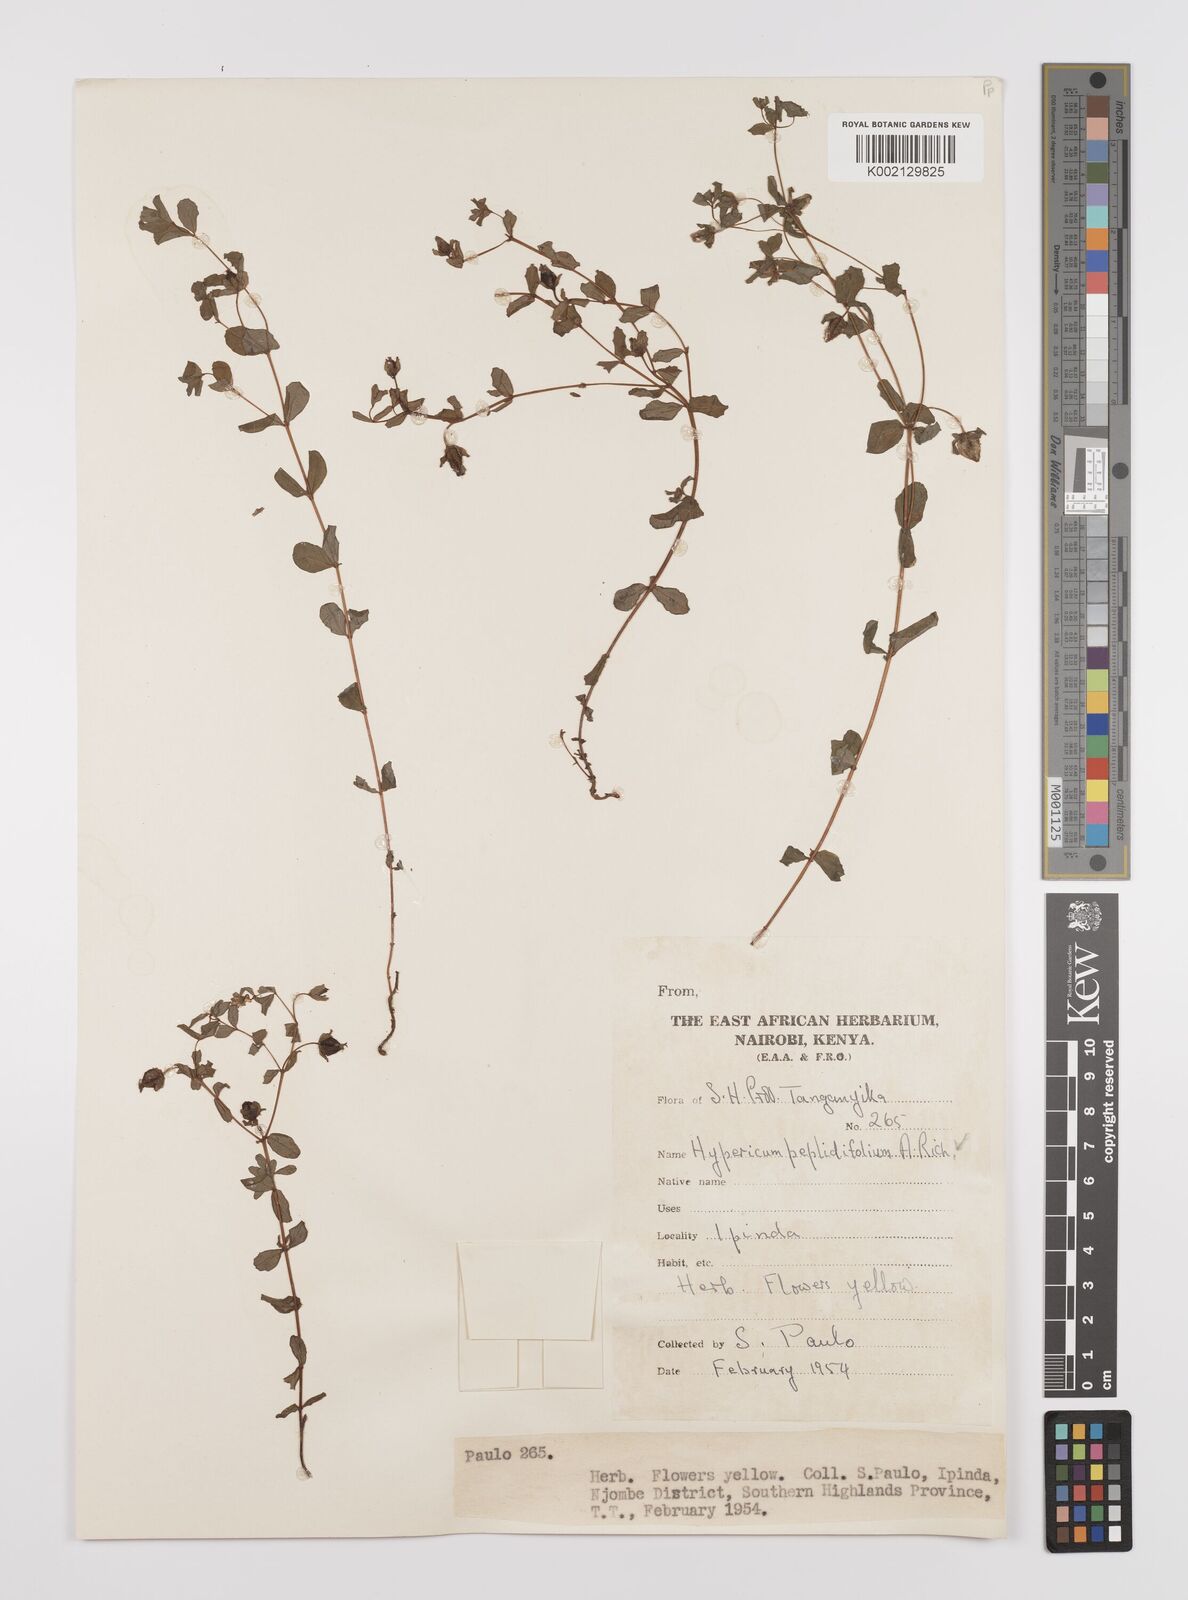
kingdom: Plantae
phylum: Tracheophyta
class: Magnoliopsida
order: Malpighiales
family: Hypericaceae
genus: Hypericum
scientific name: Hypericum peplidifolium
